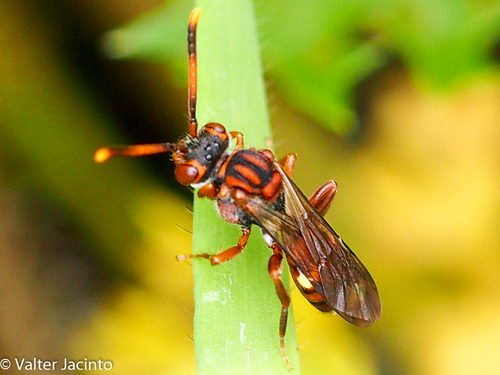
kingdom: Animalia
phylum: Arthropoda
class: Insecta
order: Hymenoptera
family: Apidae
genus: Nomada
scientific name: Nomada alboguttata
